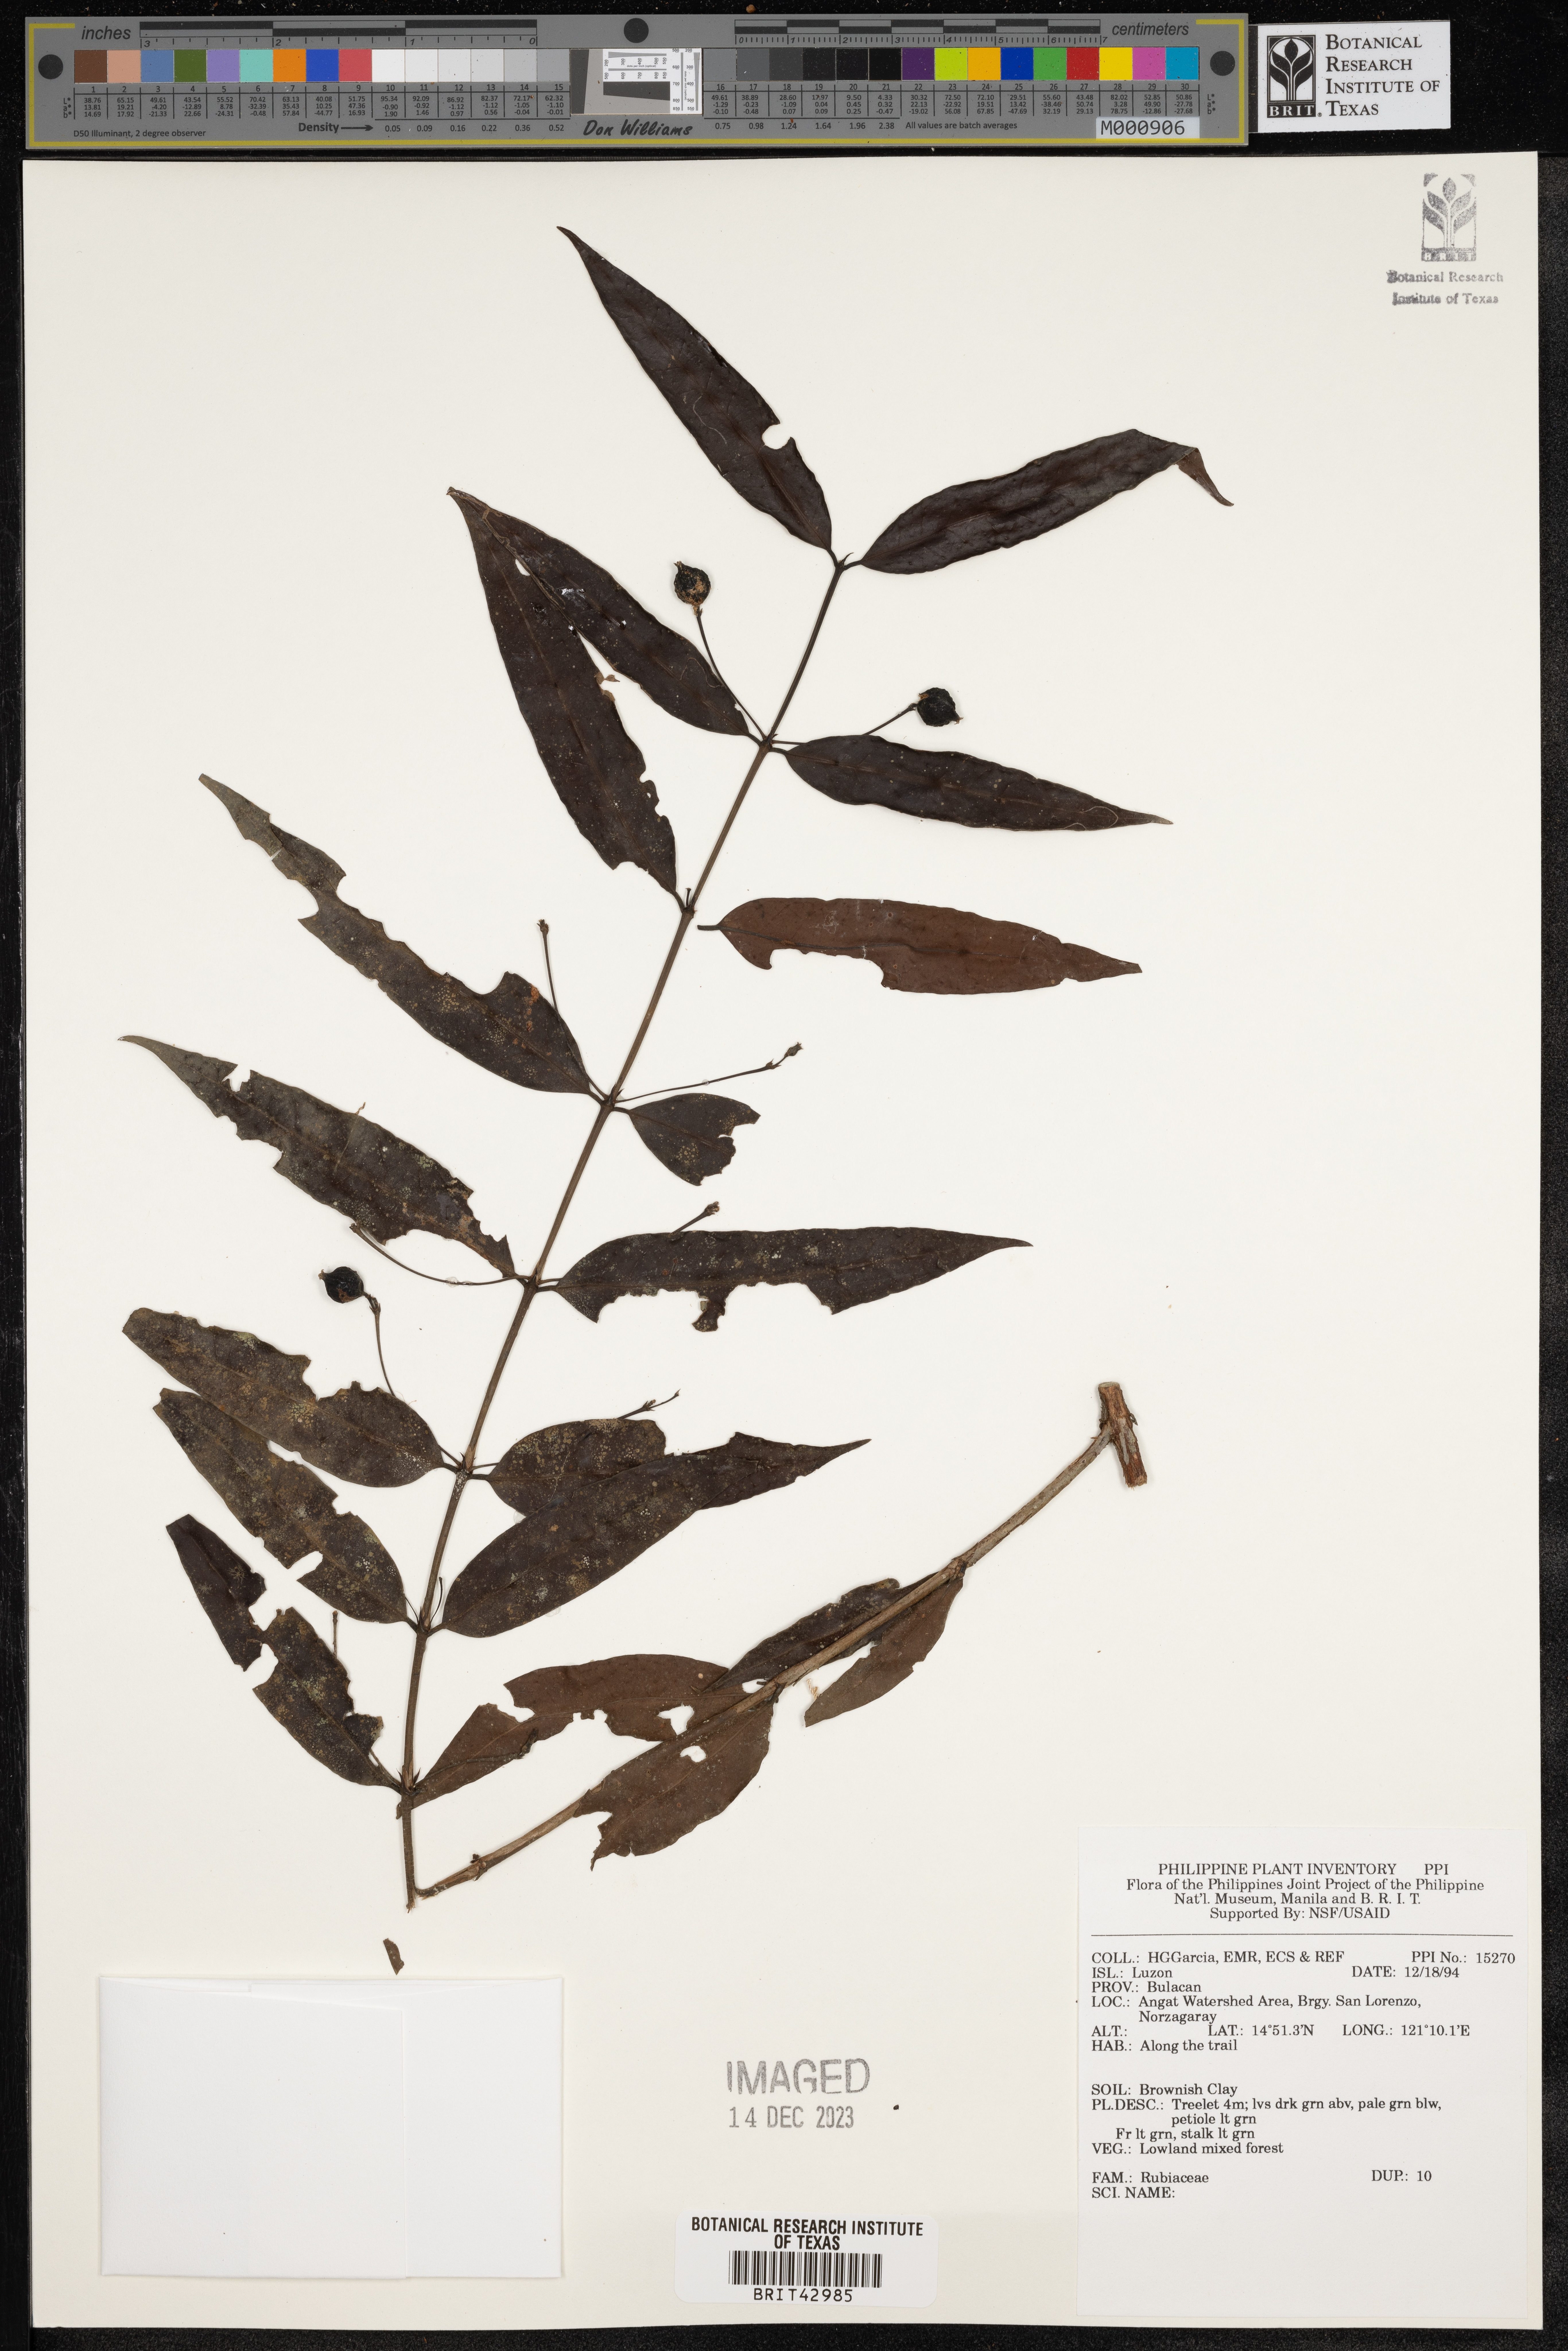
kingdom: Plantae
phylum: Tracheophyta
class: Magnoliopsida
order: Gentianales
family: Rubiaceae
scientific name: Rubiaceae
